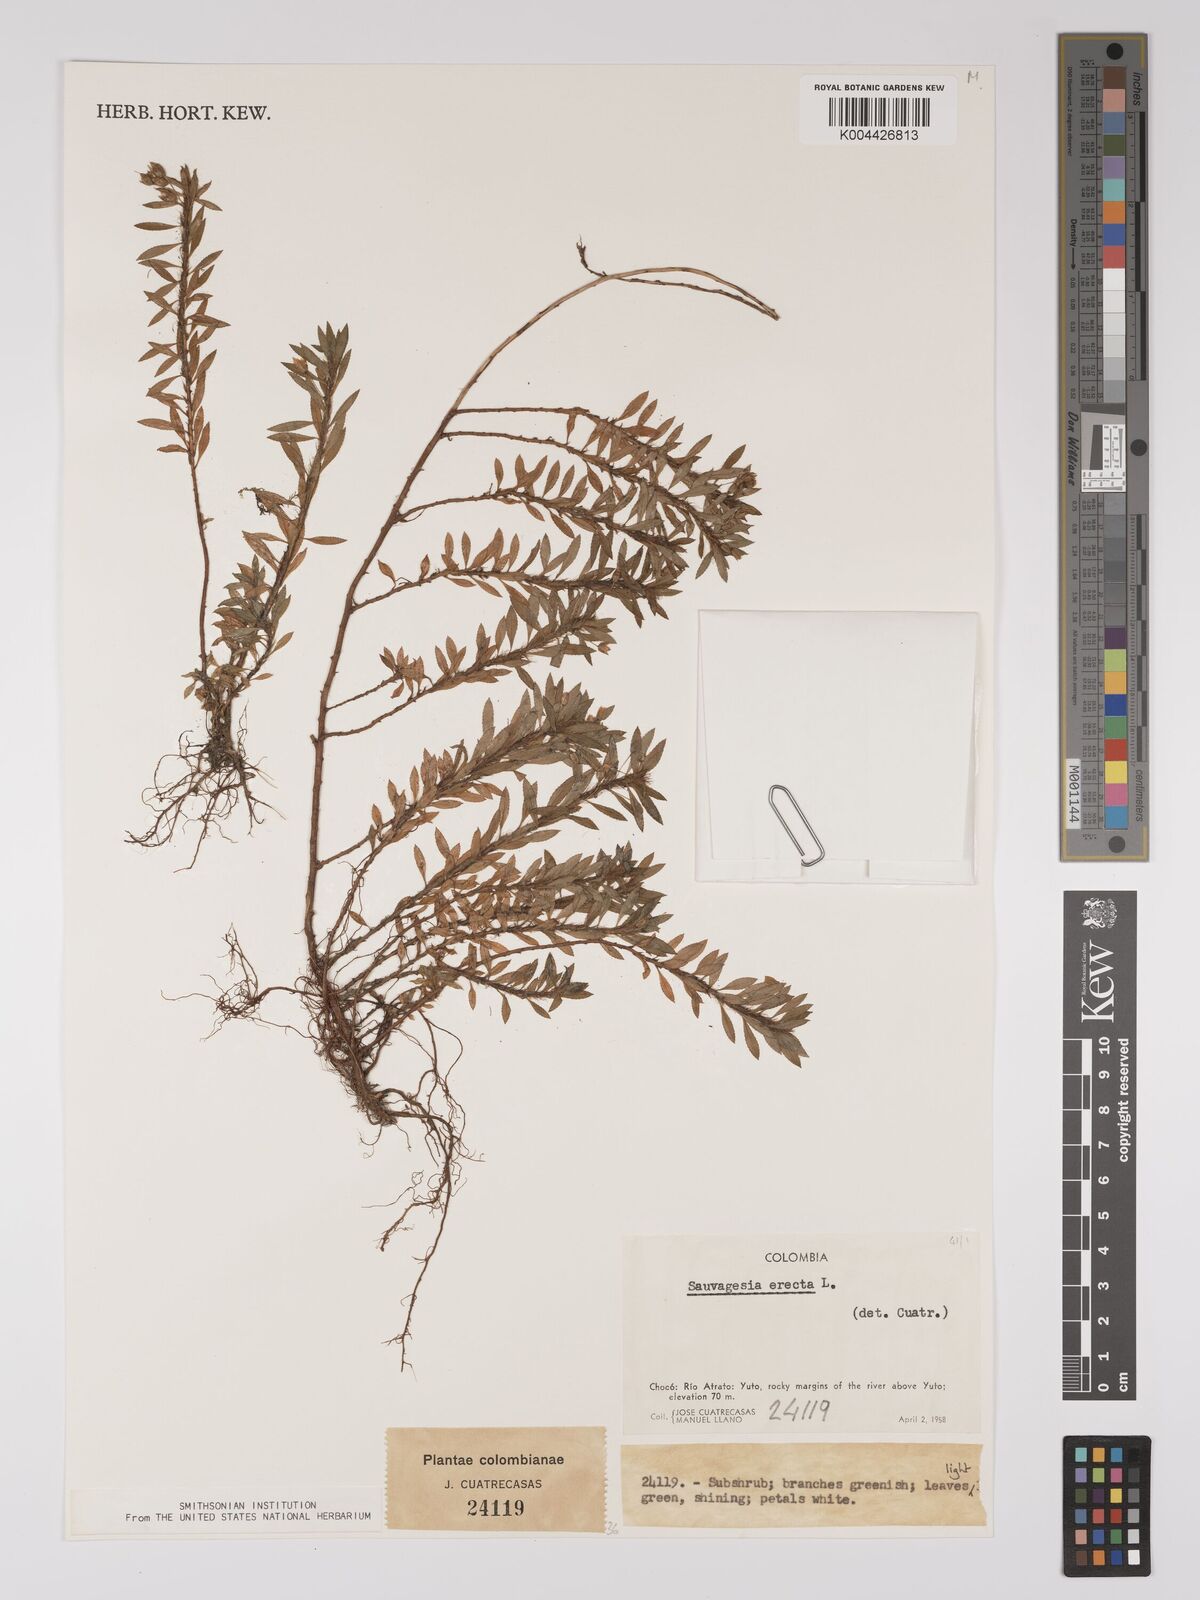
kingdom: Plantae
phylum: Tracheophyta
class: Magnoliopsida
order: Malpighiales
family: Ochnaceae
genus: Sauvagesia
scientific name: Sauvagesia erecta
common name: Creole tea
